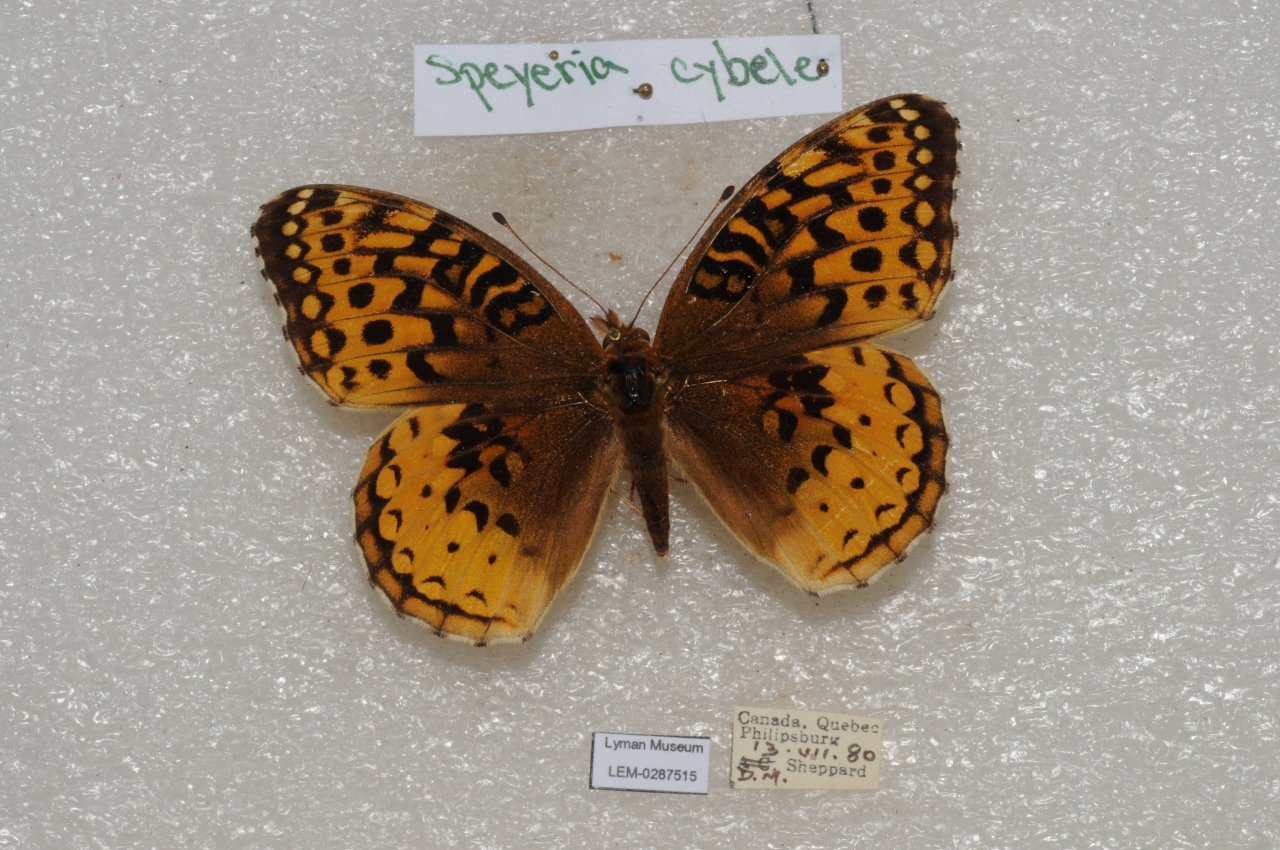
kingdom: Animalia
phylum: Arthropoda
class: Insecta
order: Lepidoptera
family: Nymphalidae
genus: Speyeria
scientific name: Speyeria cybele
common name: Great Spangled Fritillary
